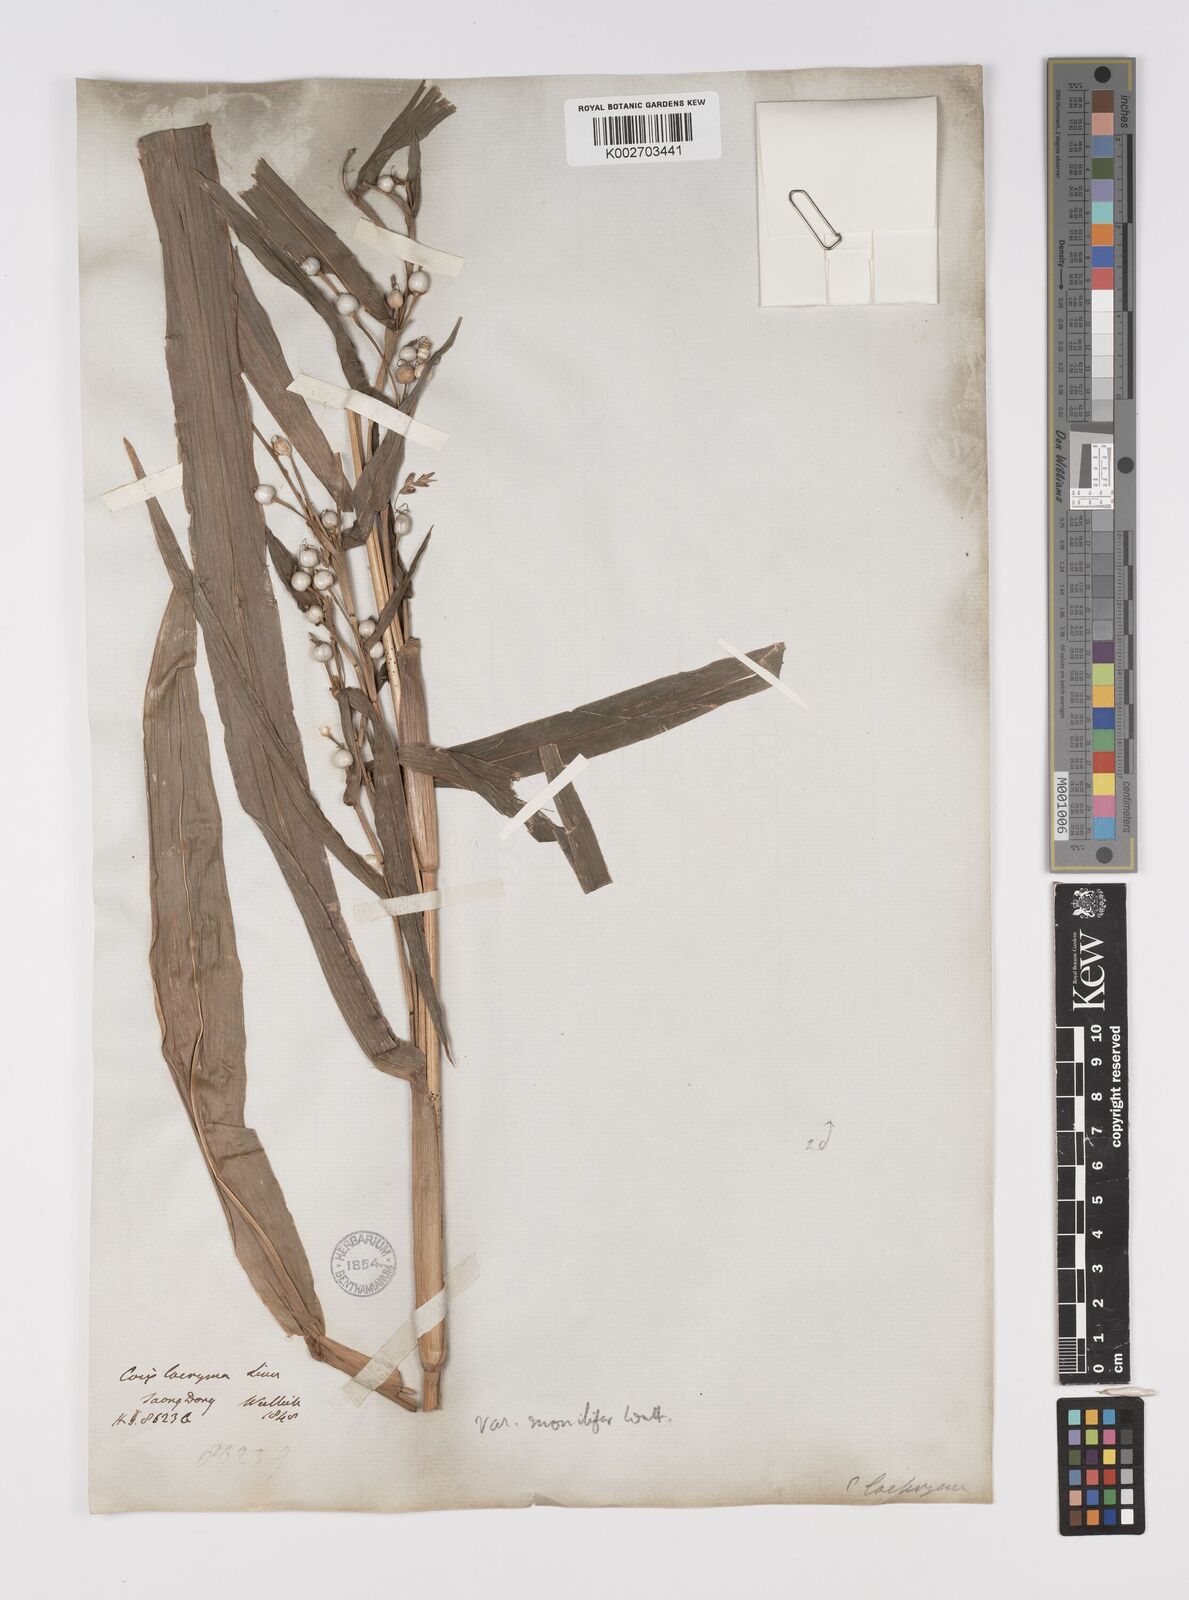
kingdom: Plantae
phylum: Tracheophyta
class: Liliopsida
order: Poales
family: Poaceae
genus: Coix
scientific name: Coix lacryma-jobi
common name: Job's tears
